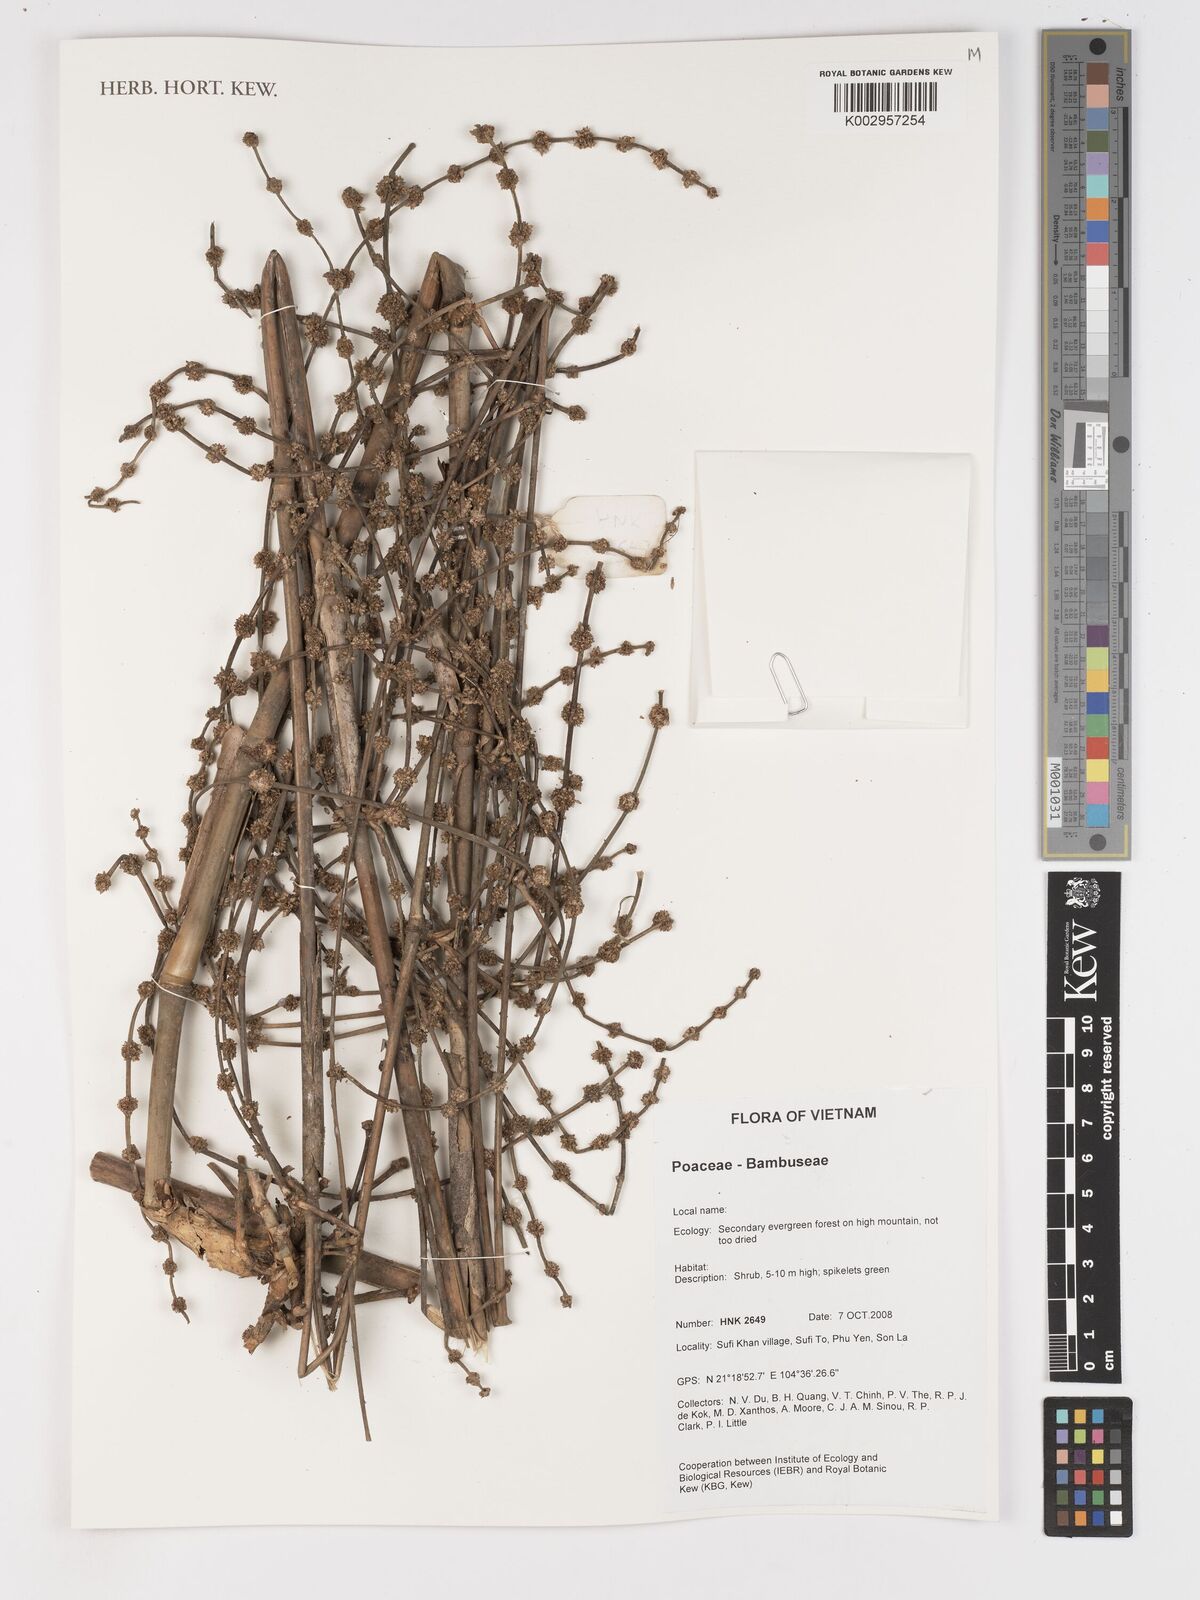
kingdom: Plantae
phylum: Tracheophyta
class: Liliopsida
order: Poales
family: Poaceae
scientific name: Poaceae
